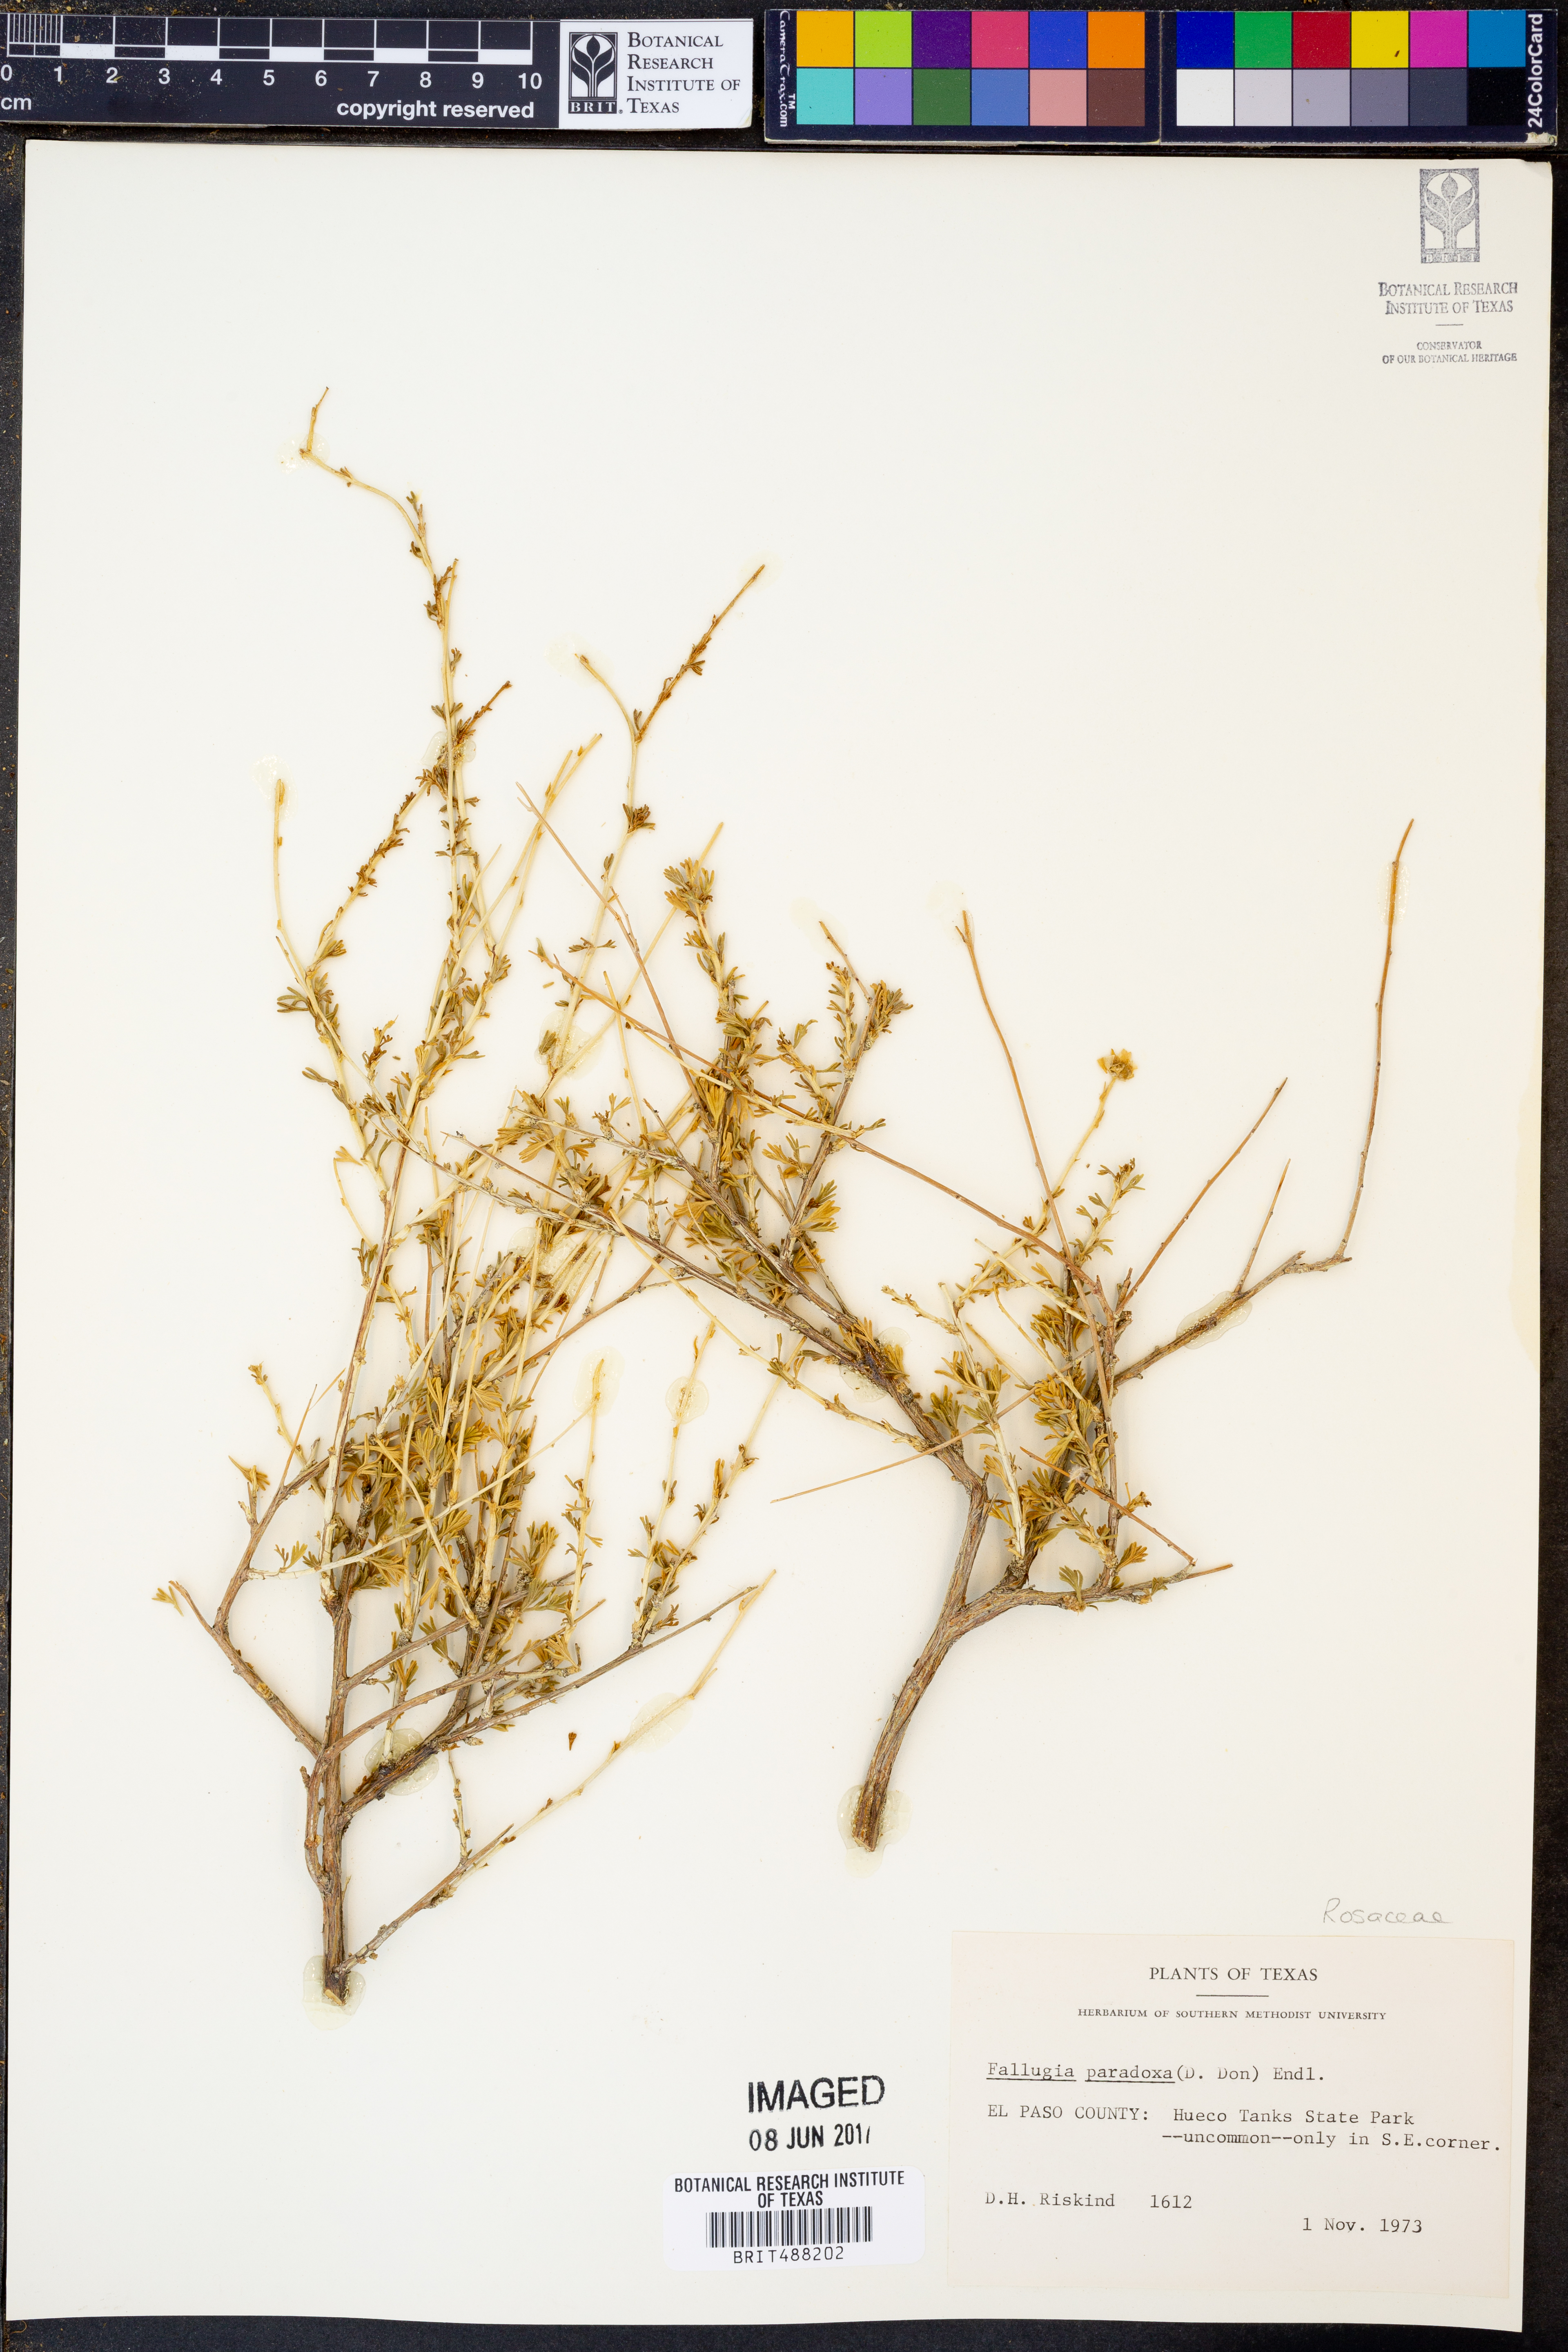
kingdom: Plantae
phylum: Tracheophyta
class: Magnoliopsida
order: Rosales
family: Rosaceae
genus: Fallugia
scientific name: Fallugia paradoxa
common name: Apache-plume
